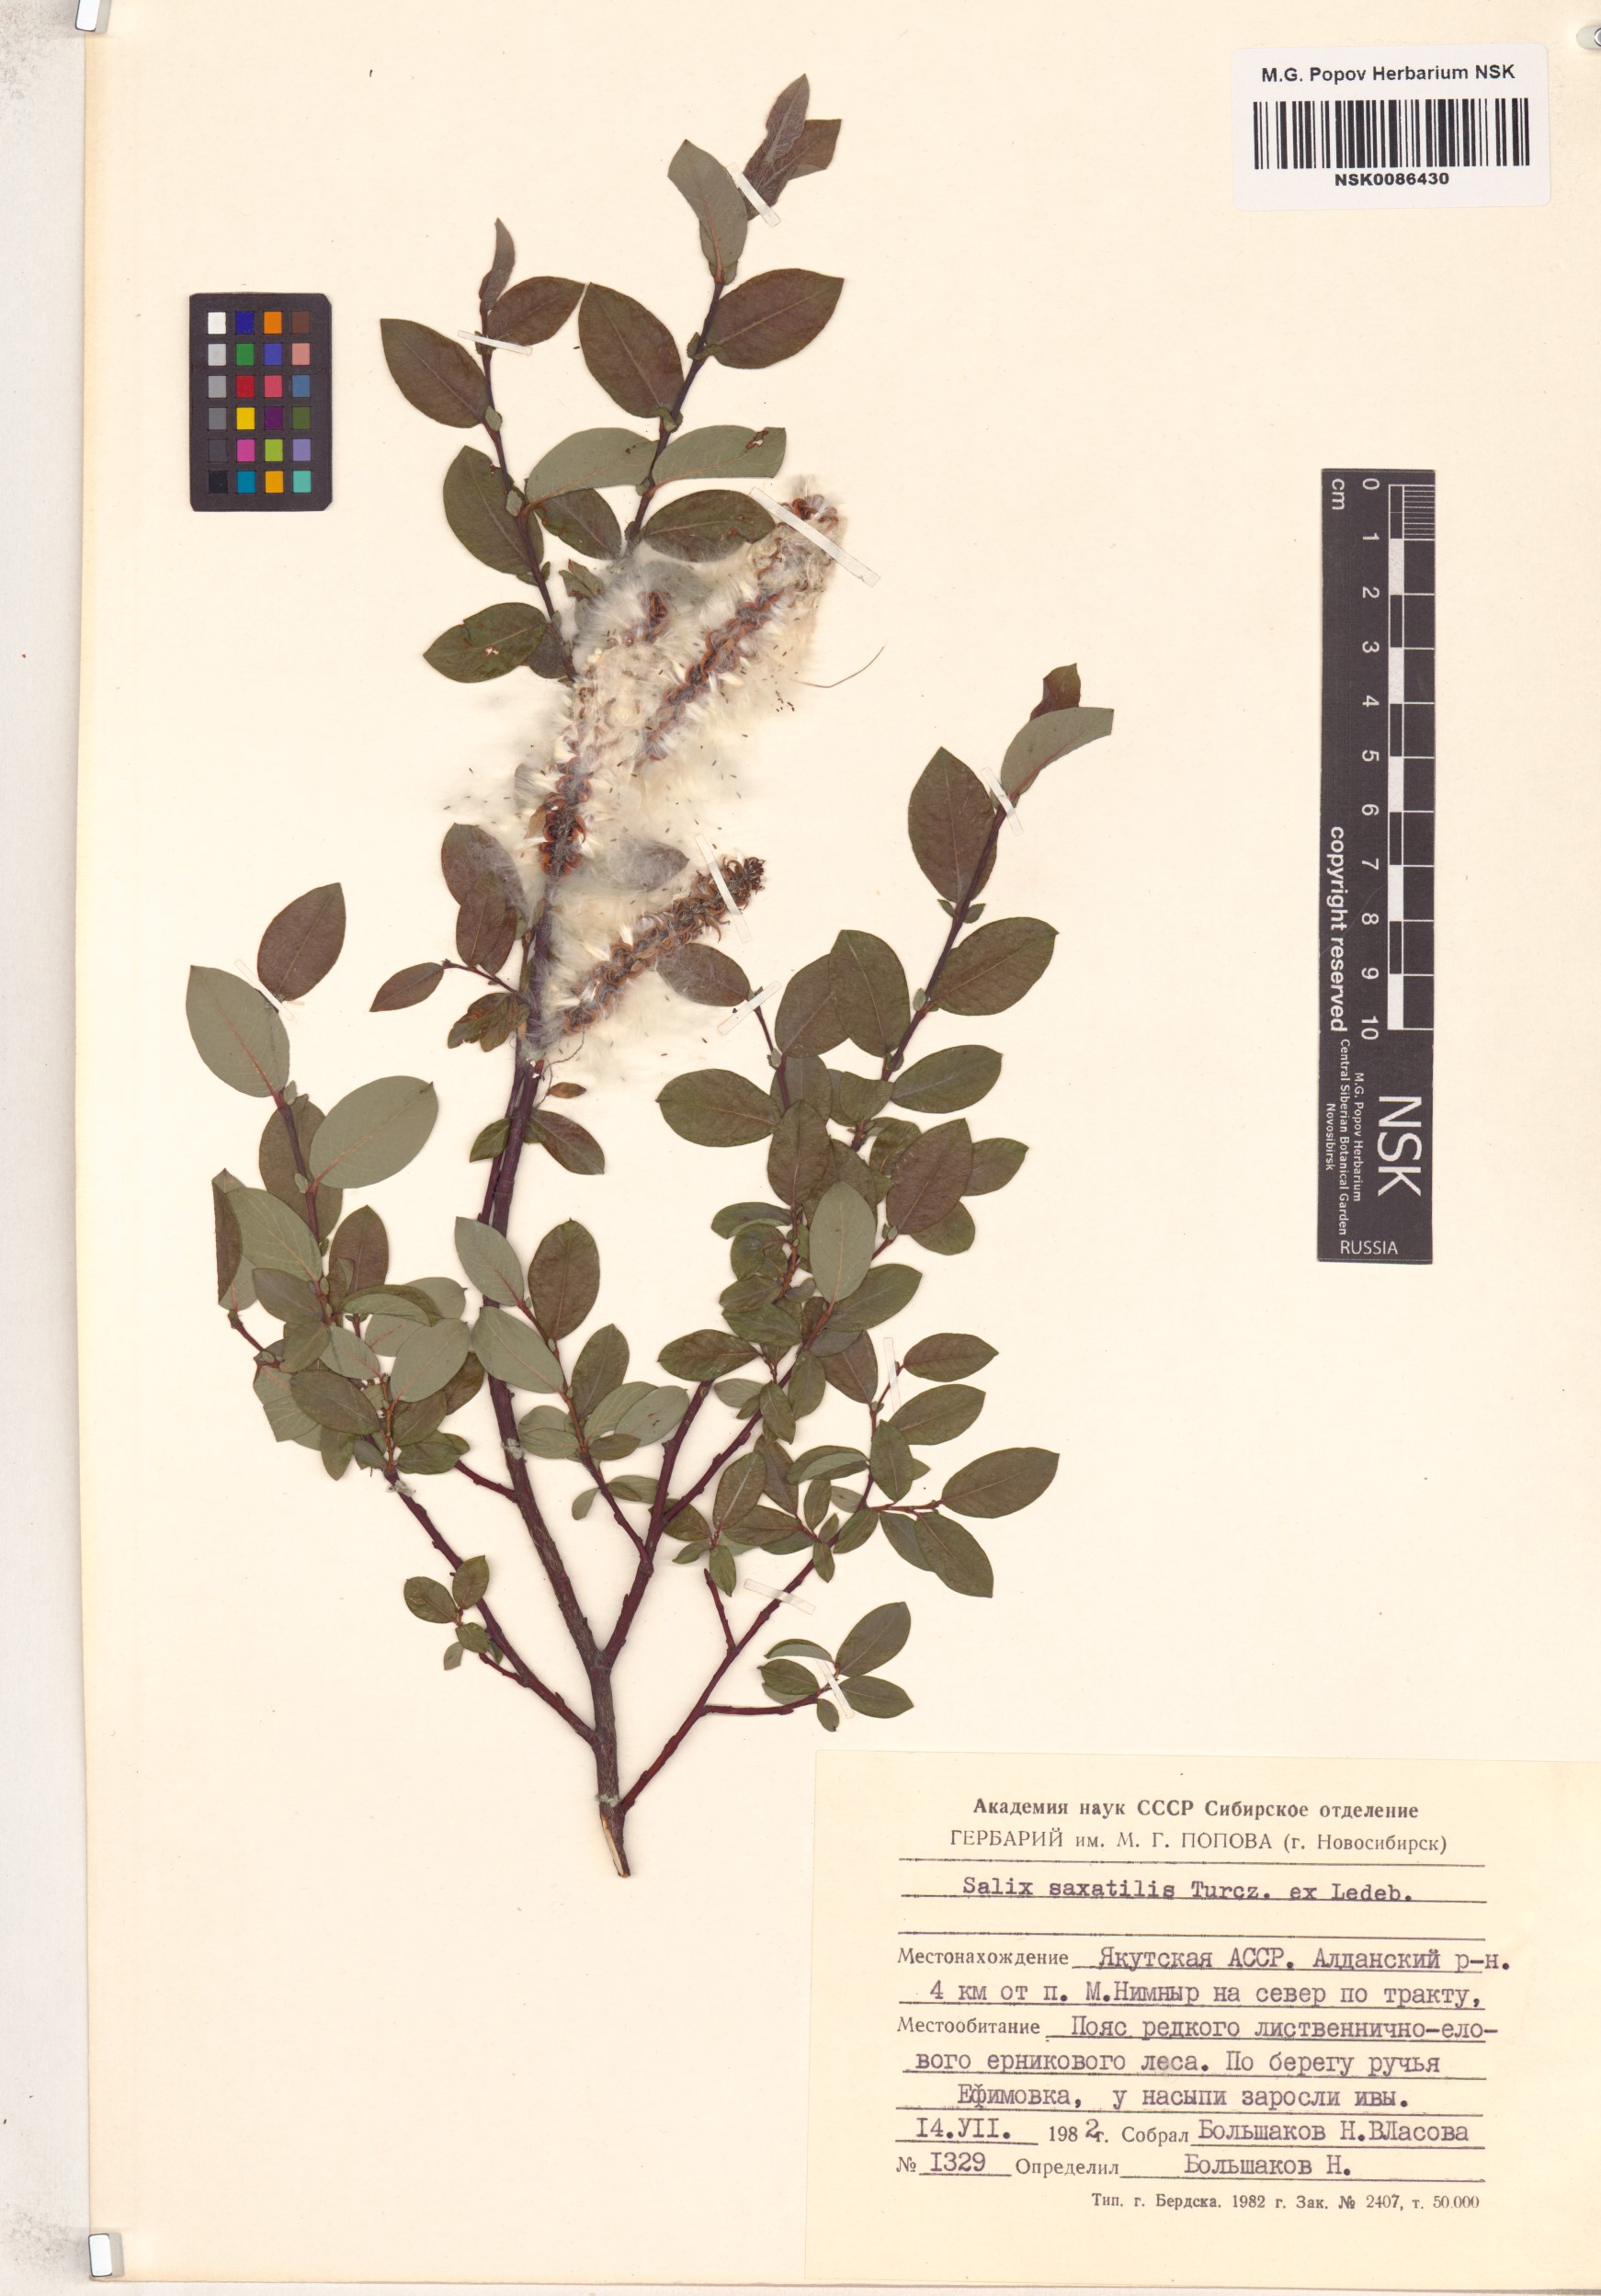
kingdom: Plantae
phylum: Tracheophyta
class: Magnoliopsida
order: Malpighiales
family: Salicaceae
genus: Salix
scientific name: Salix saxatilis
